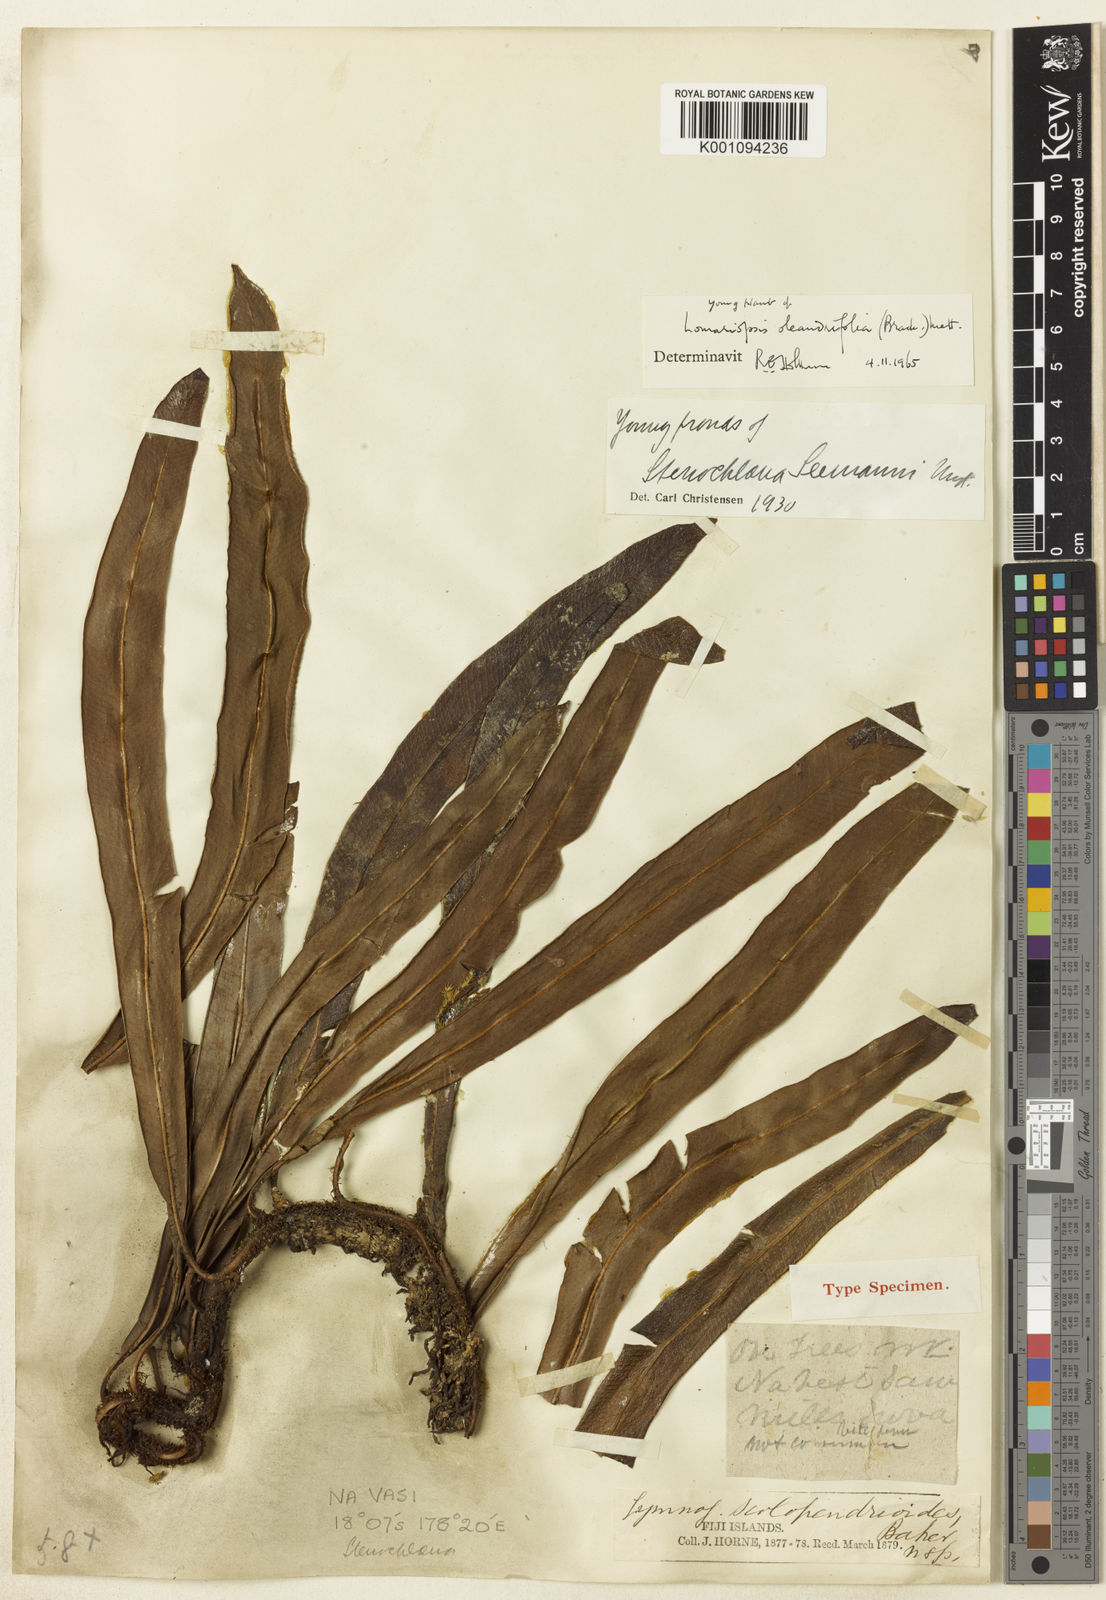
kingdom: Plantae
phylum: Tracheophyta
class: Polypodiopsida
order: Polypodiales
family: Lomariopsidaceae
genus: Lomariopsis
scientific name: Lomariopsis oleandrifolia
